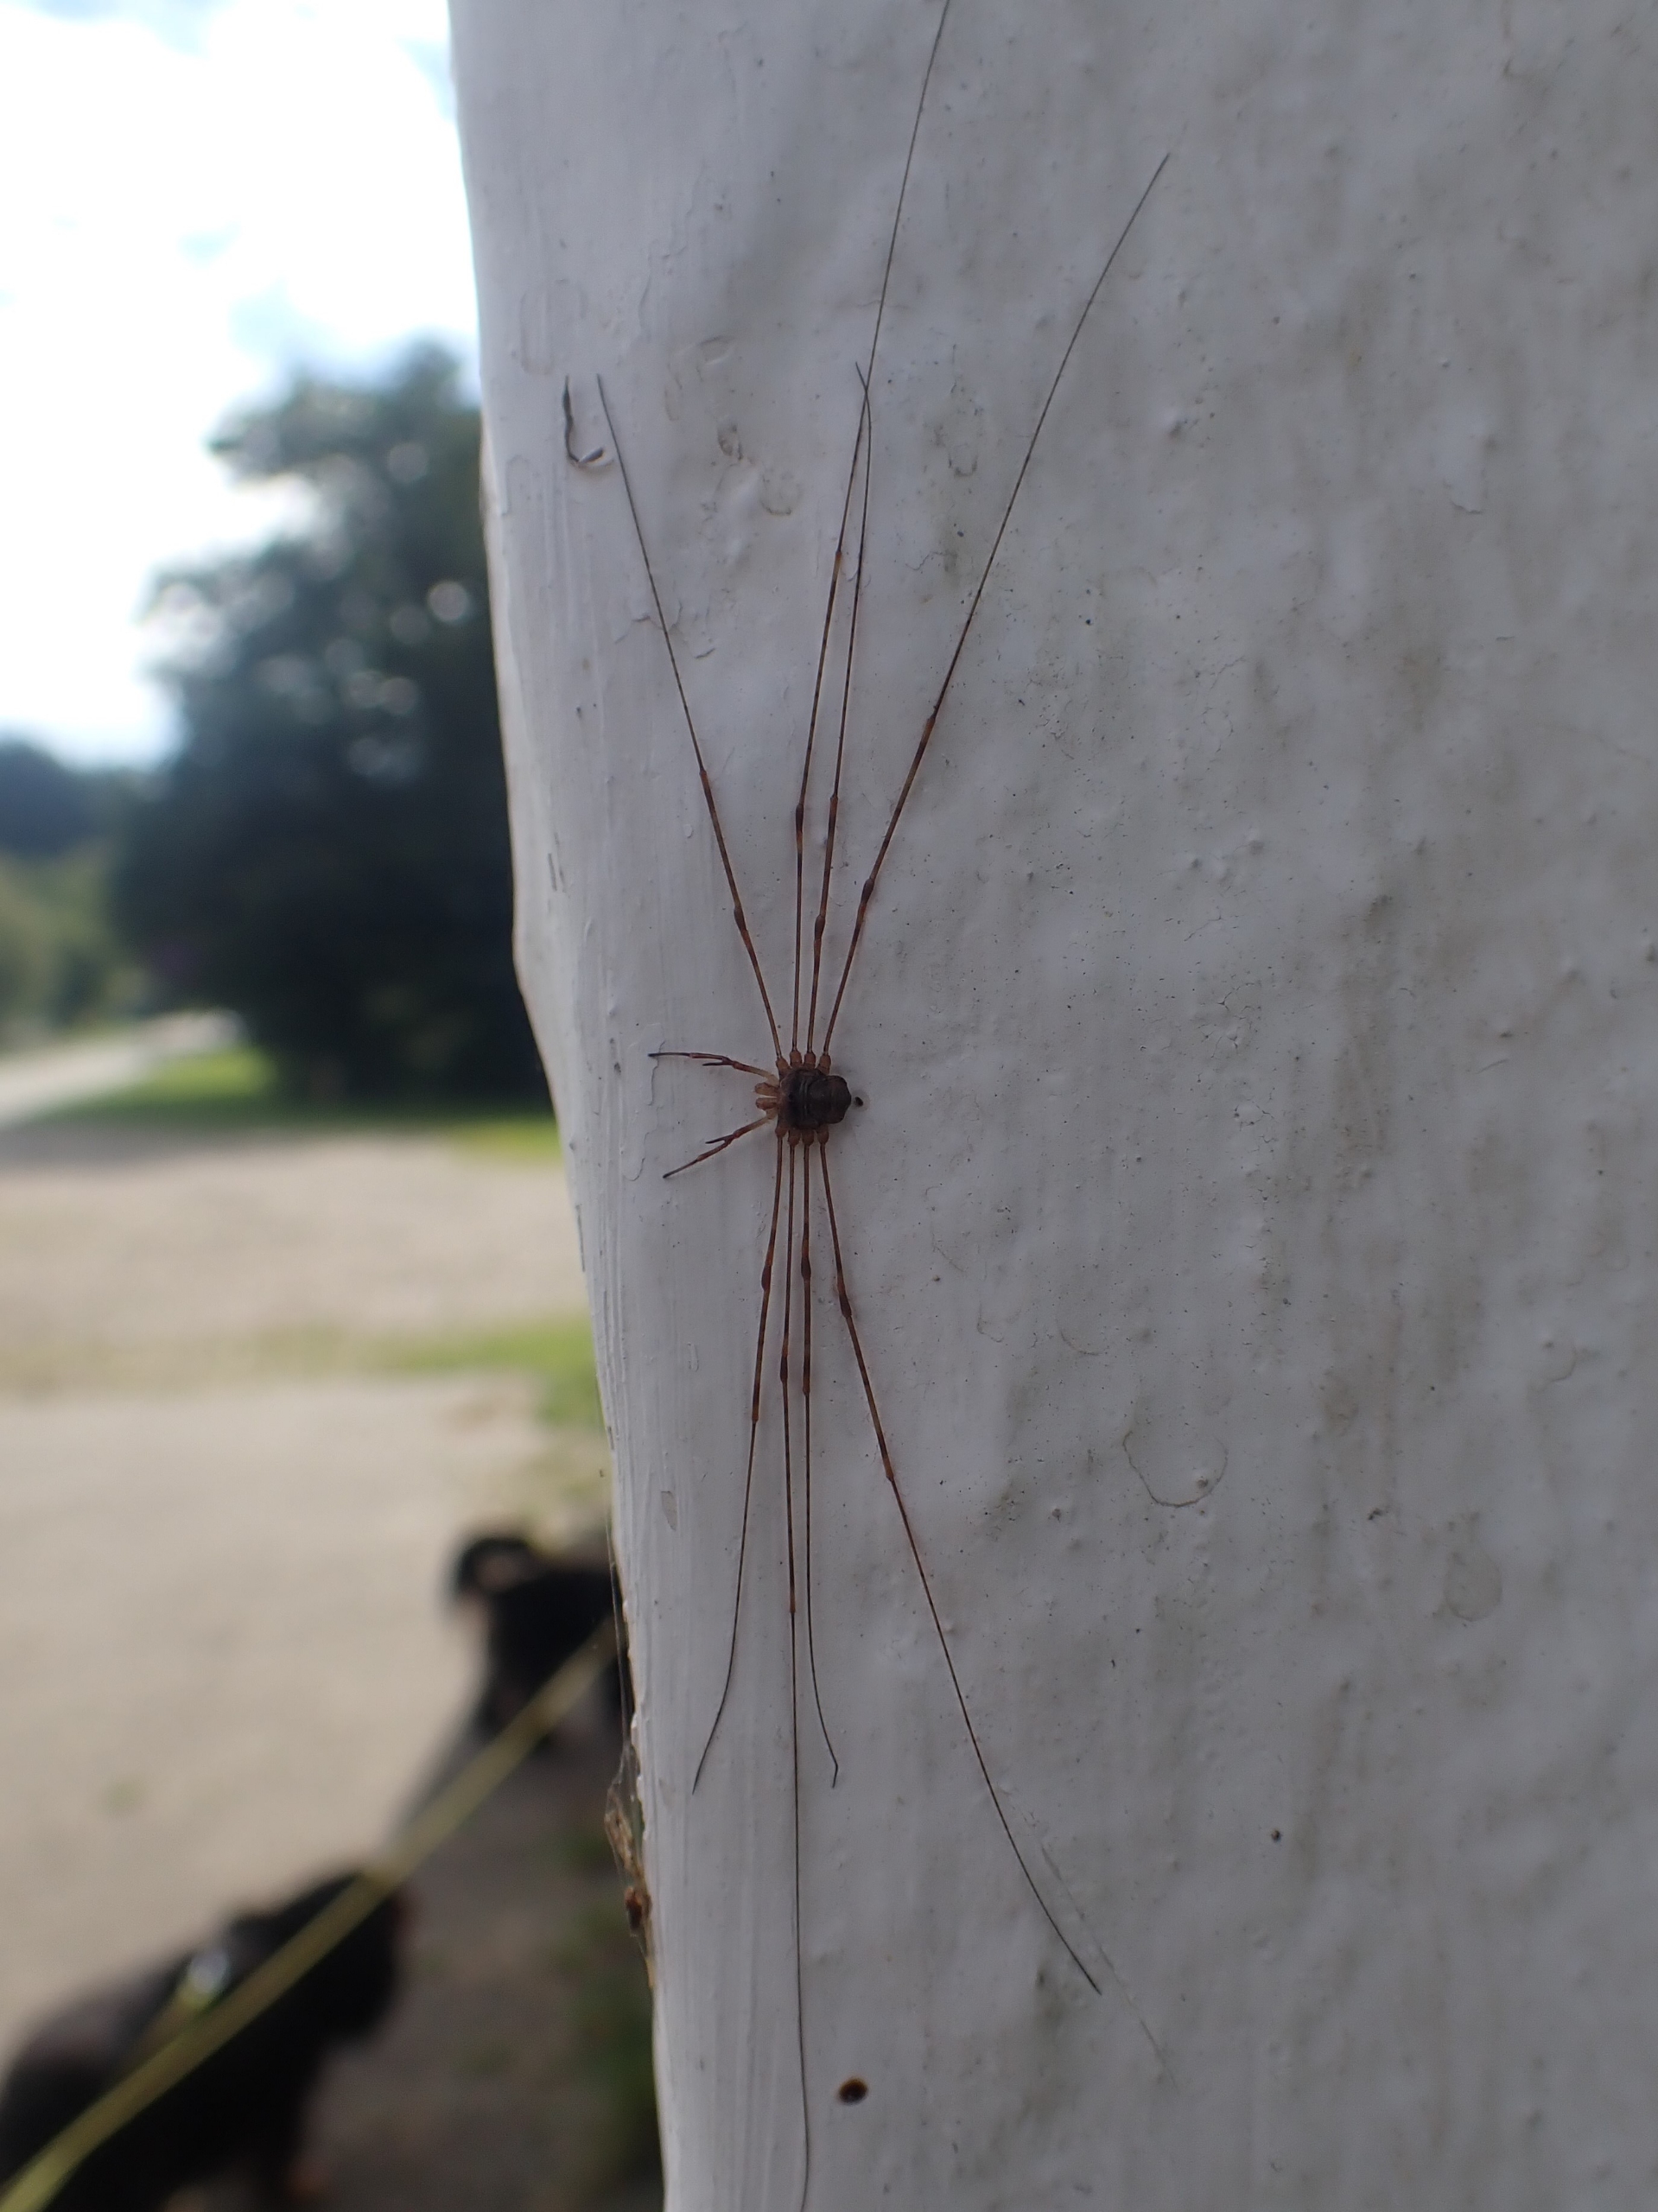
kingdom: Animalia
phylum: Arthropoda
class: Arachnida
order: Opiliones
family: Phalangiidae
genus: Dicranopalpus
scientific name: Dicranopalpus ramosus
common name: Gaffelmejer
